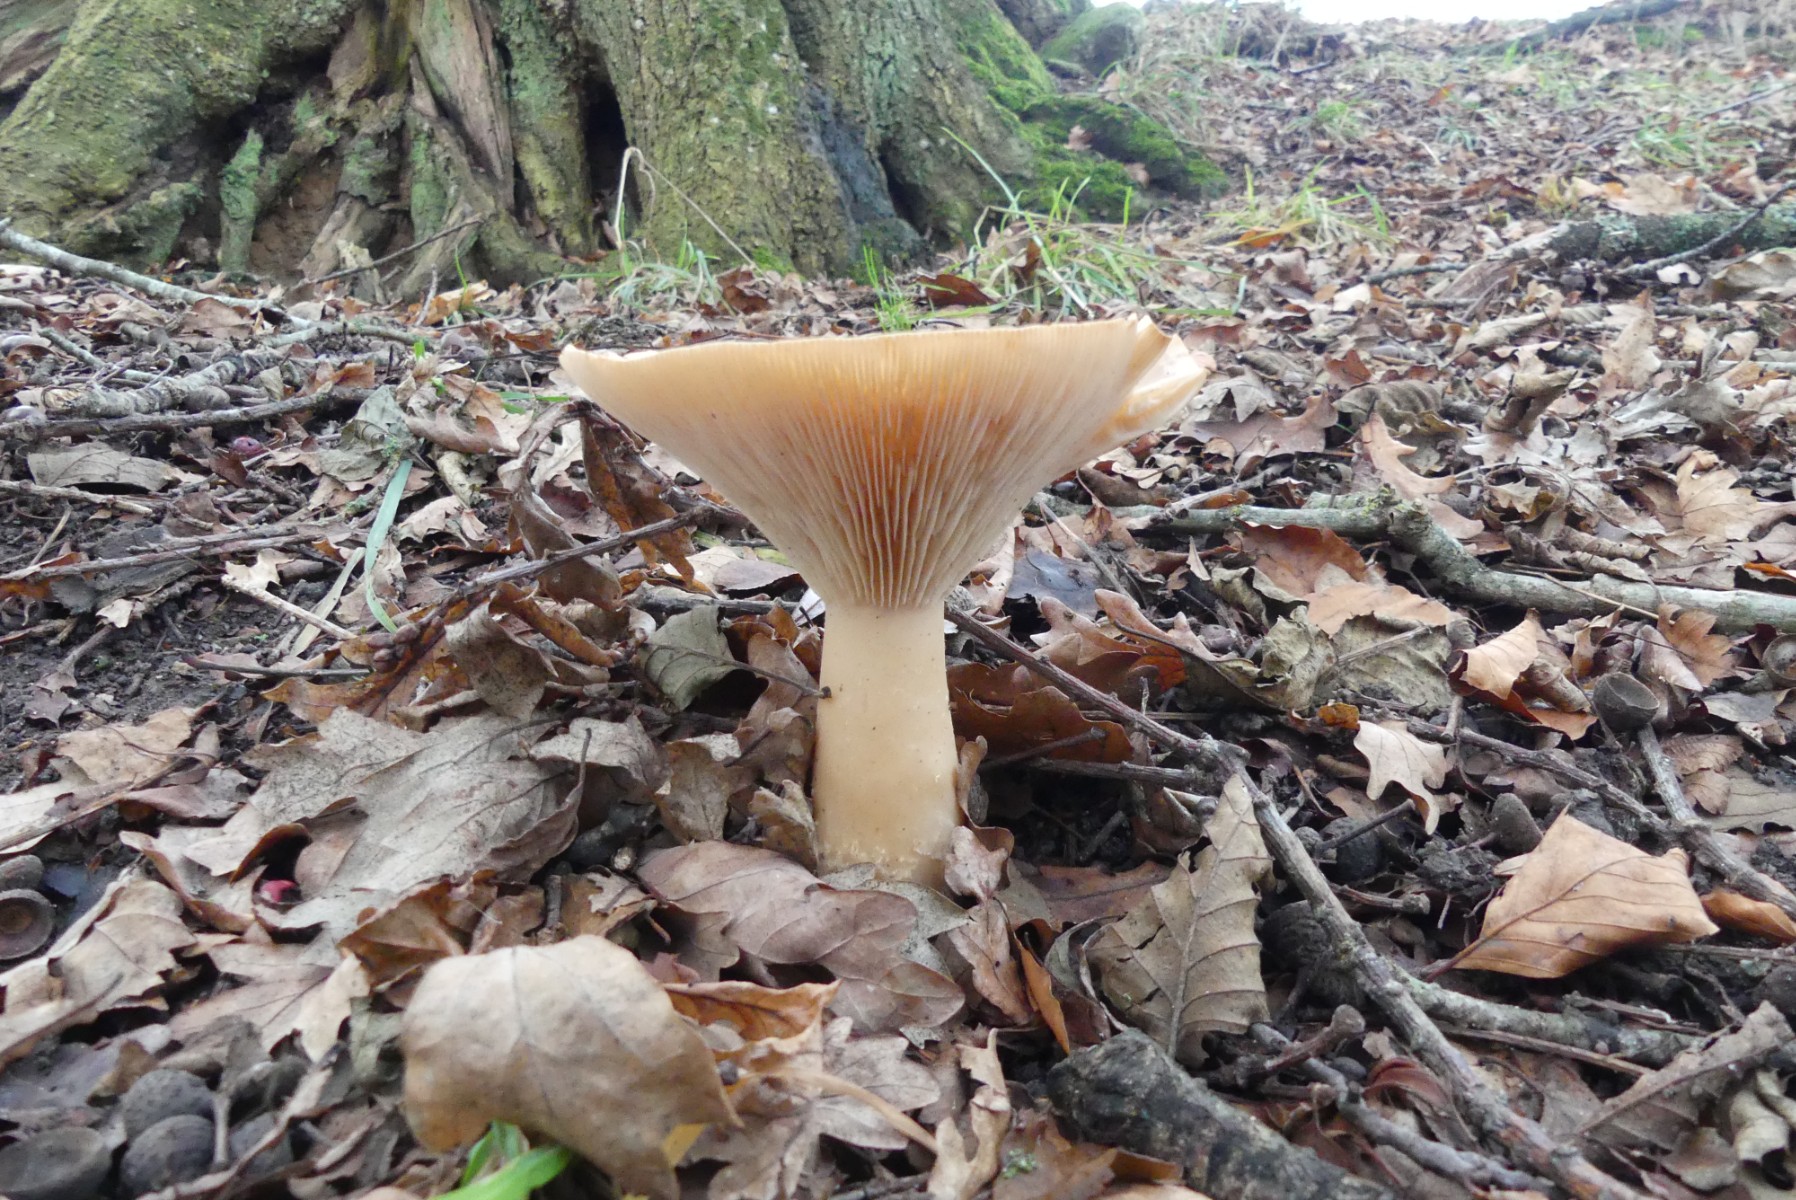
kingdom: Fungi
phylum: Basidiomycota
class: Agaricomycetes
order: Agaricales
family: Tricholomataceae
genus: Infundibulicybe
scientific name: Infundibulicybe geotropa
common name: stor tragthat
